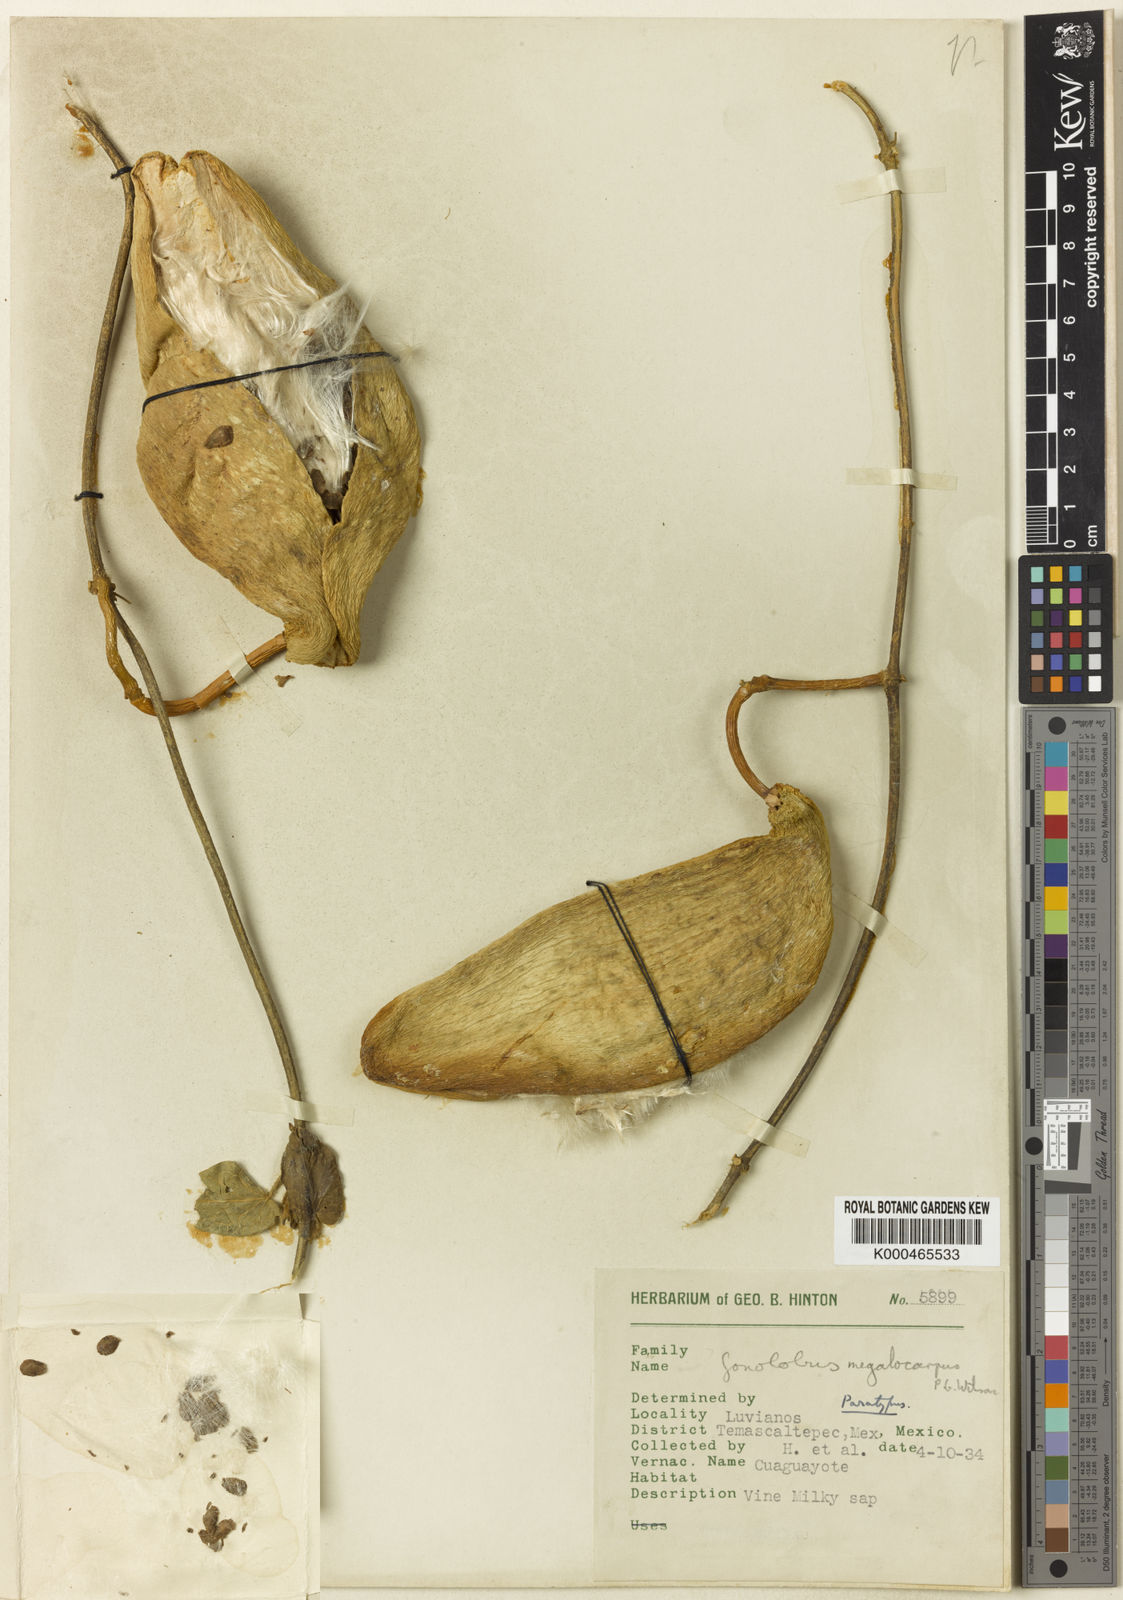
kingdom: Plantae
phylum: Tracheophyta
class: Magnoliopsida
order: Gentianales
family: Apocynaceae
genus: Gonolobus
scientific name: Gonolobus pancololote
